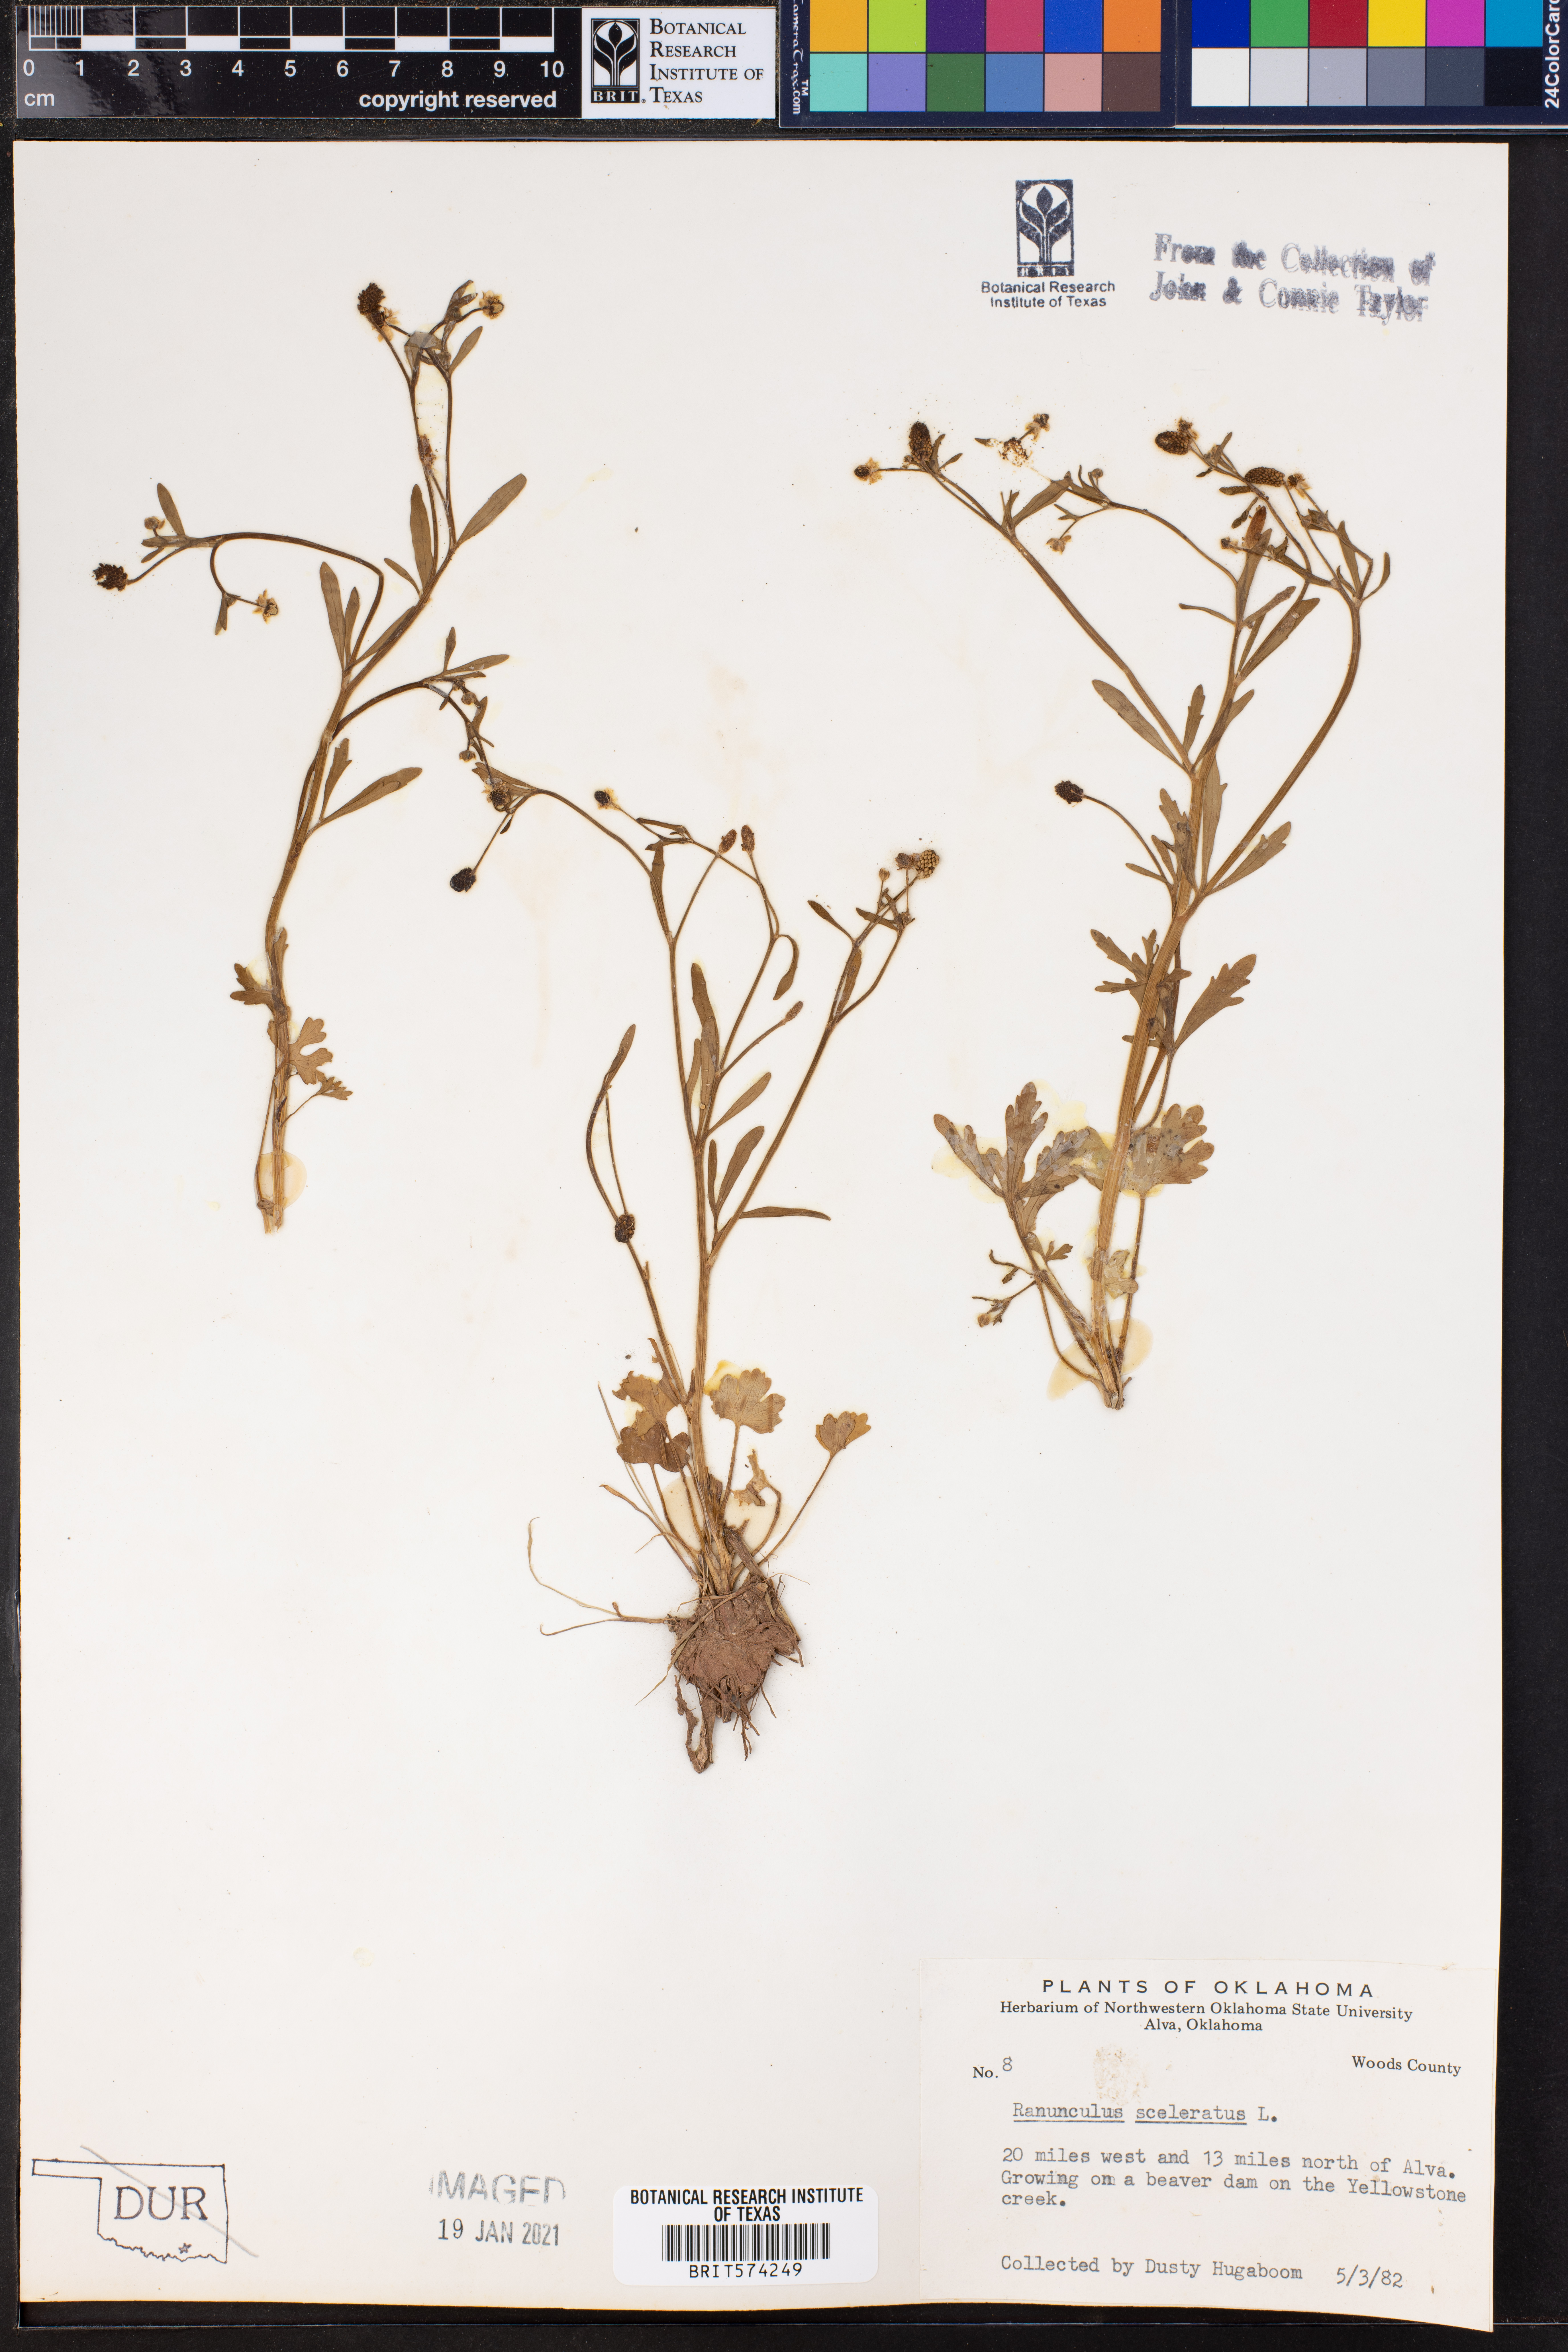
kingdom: Plantae
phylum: Tracheophyta
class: Magnoliopsida
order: Ranunculales
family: Ranunculaceae
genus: Ranunculus
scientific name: Ranunculus sceleratus
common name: Celery-leaved buttercup
